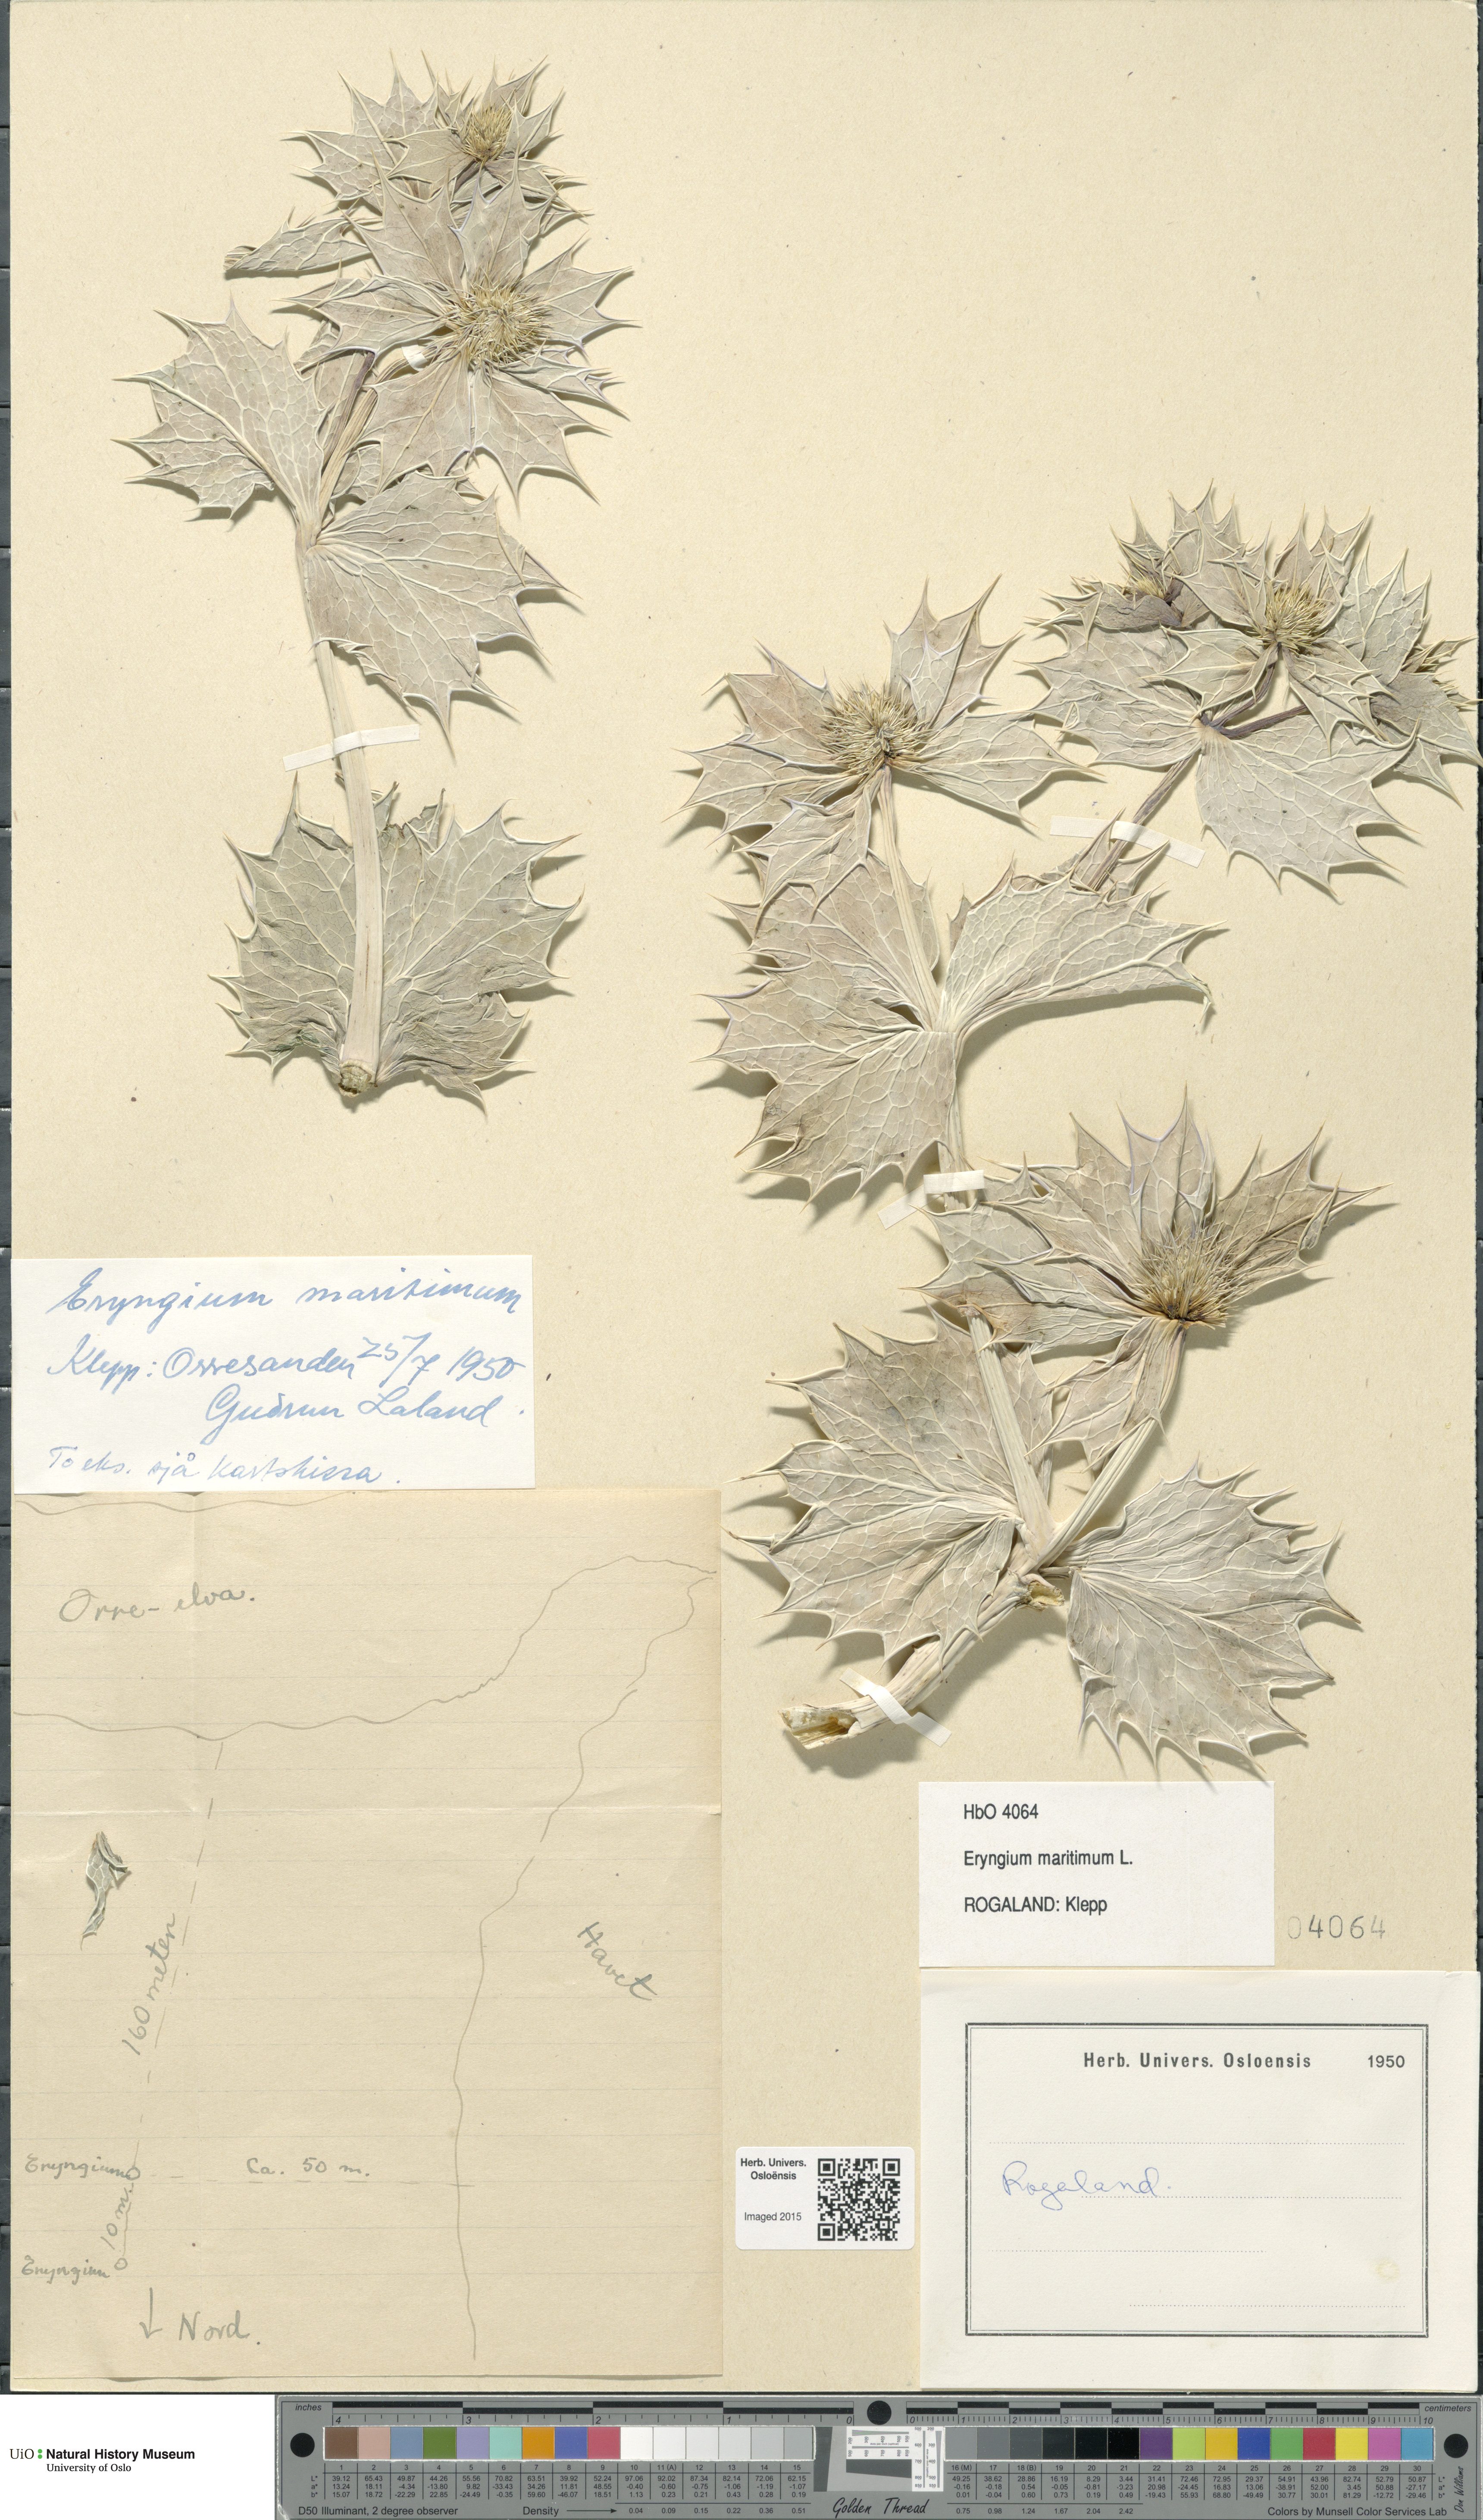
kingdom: Plantae
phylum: Tracheophyta
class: Magnoliopsida
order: Apiales
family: Apiaceae
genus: Eryngium
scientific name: Eryngium maritimum
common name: Sea-holly
